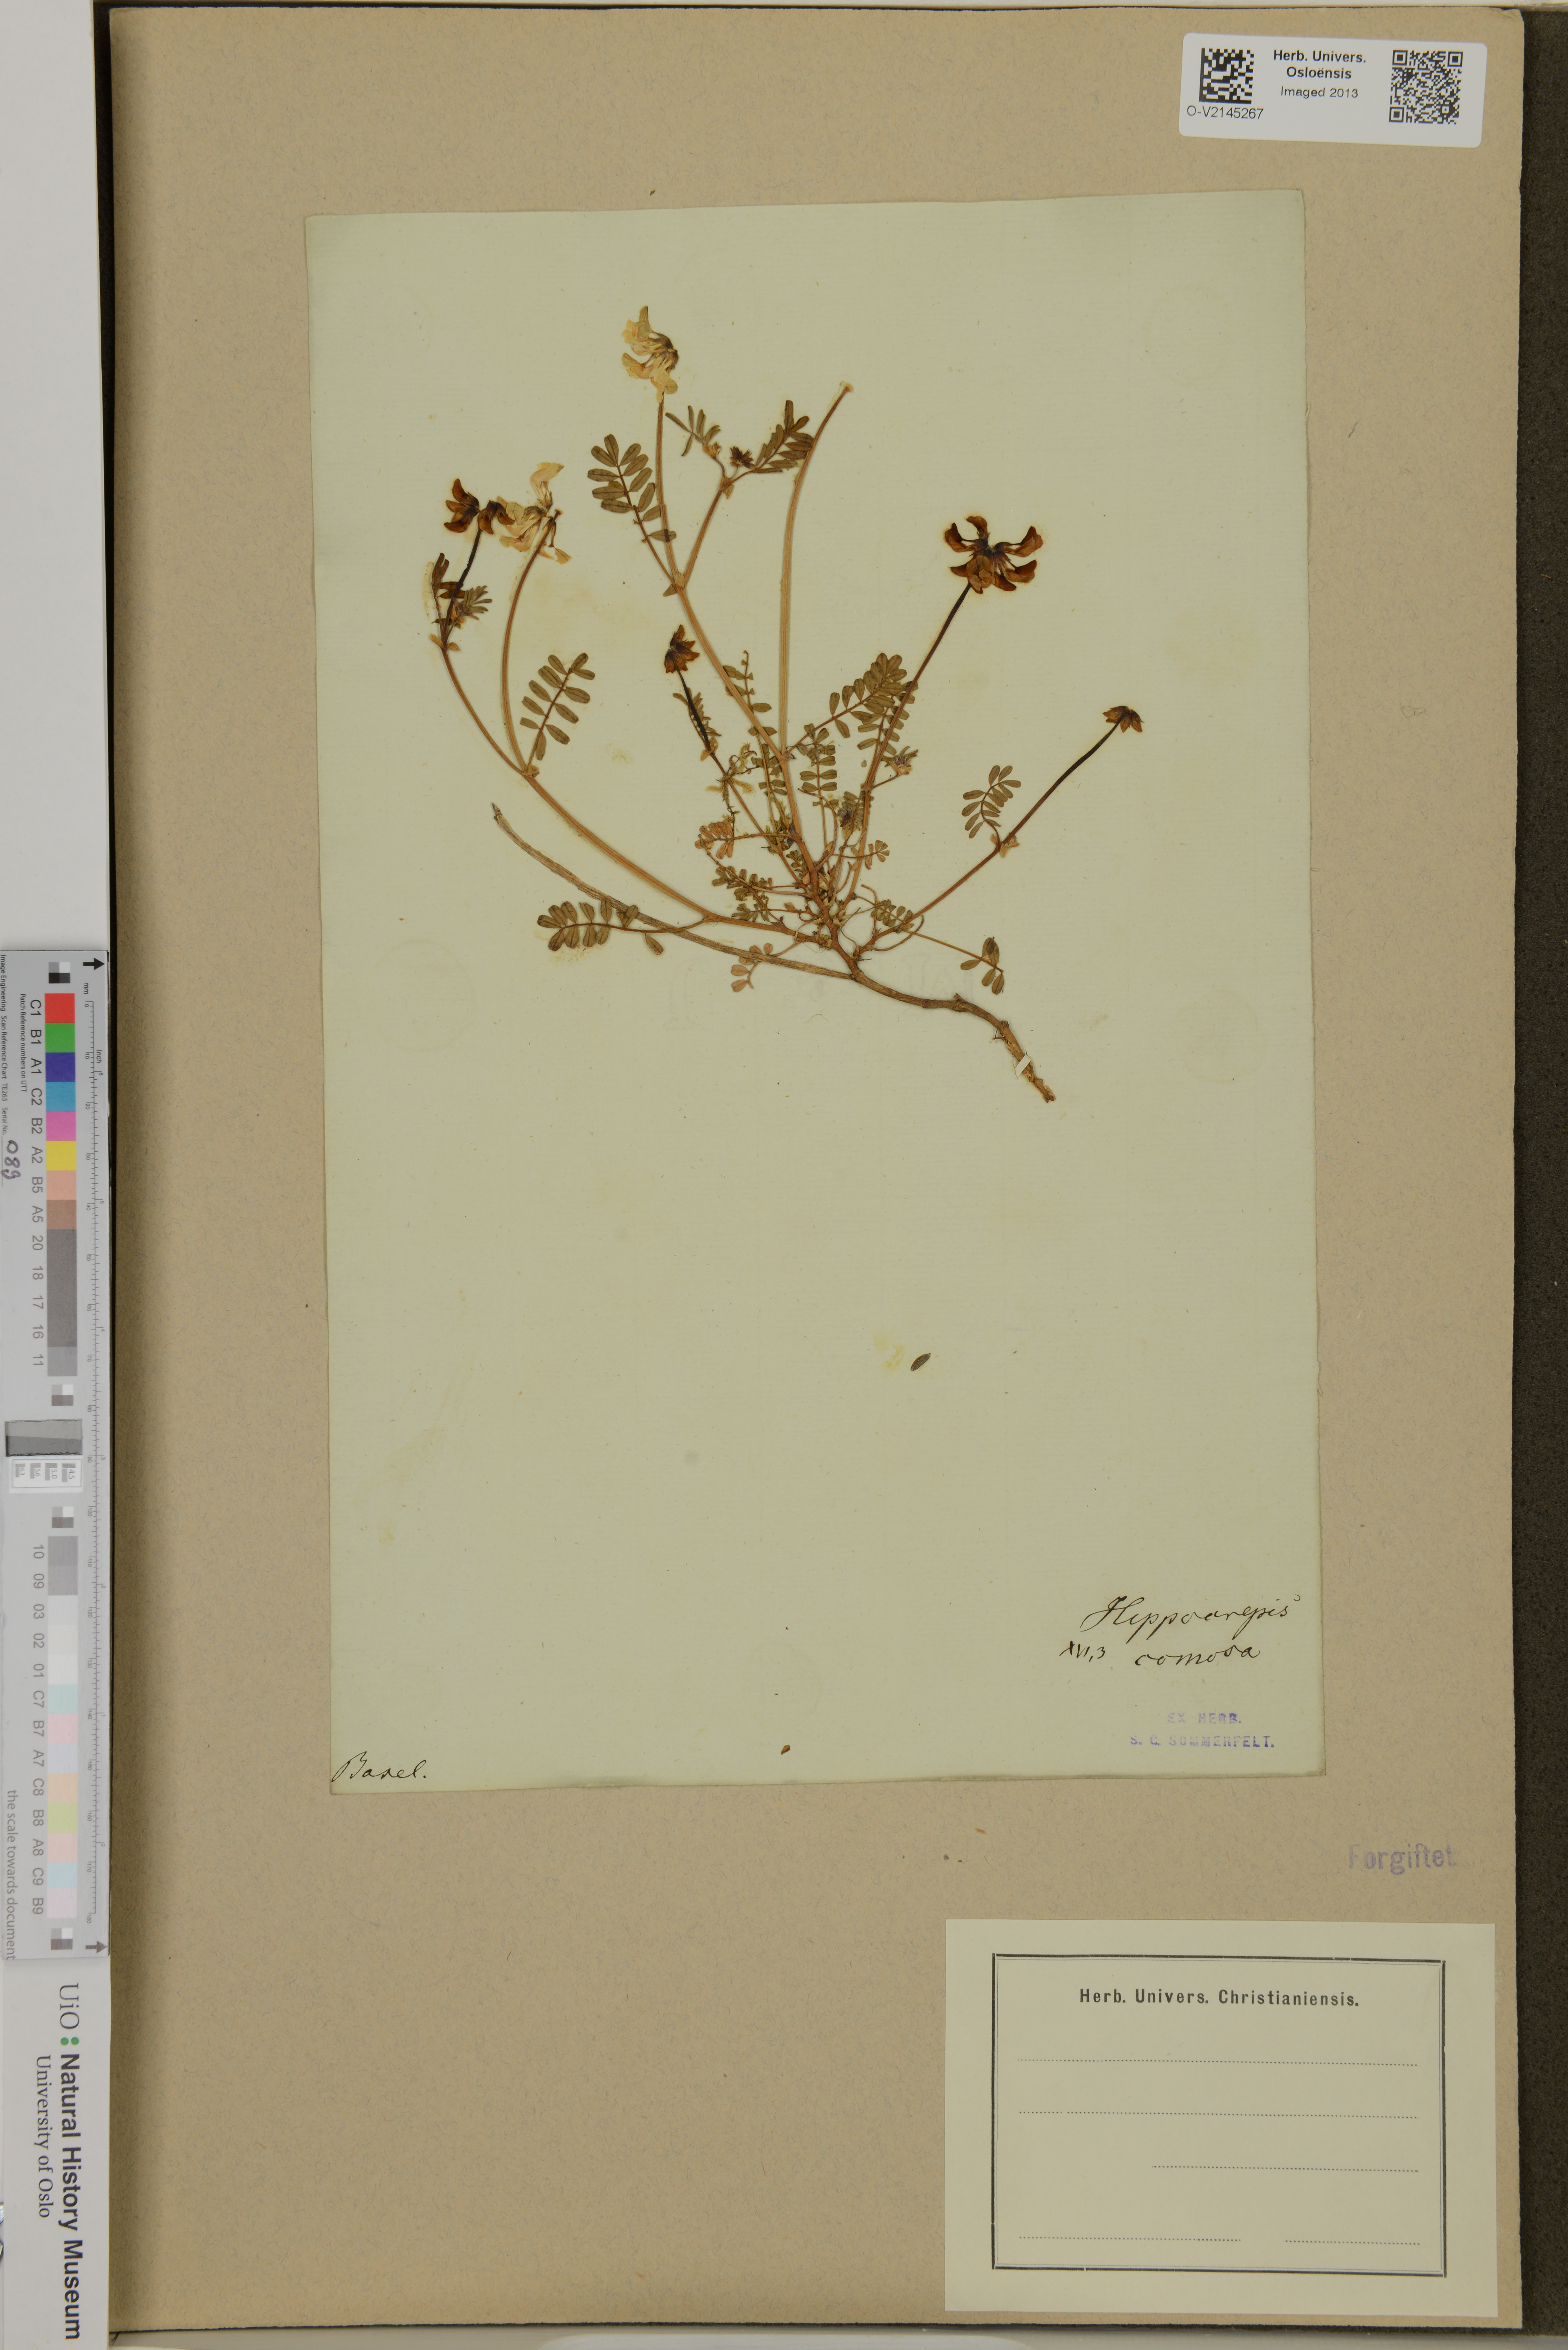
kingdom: Plantae
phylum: Tracheophyta
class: Magnoliopsida
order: Fabales
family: Fabaceae
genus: Hippocrepis
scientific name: Hippocrepis comosa
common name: Horseshoe vetch
